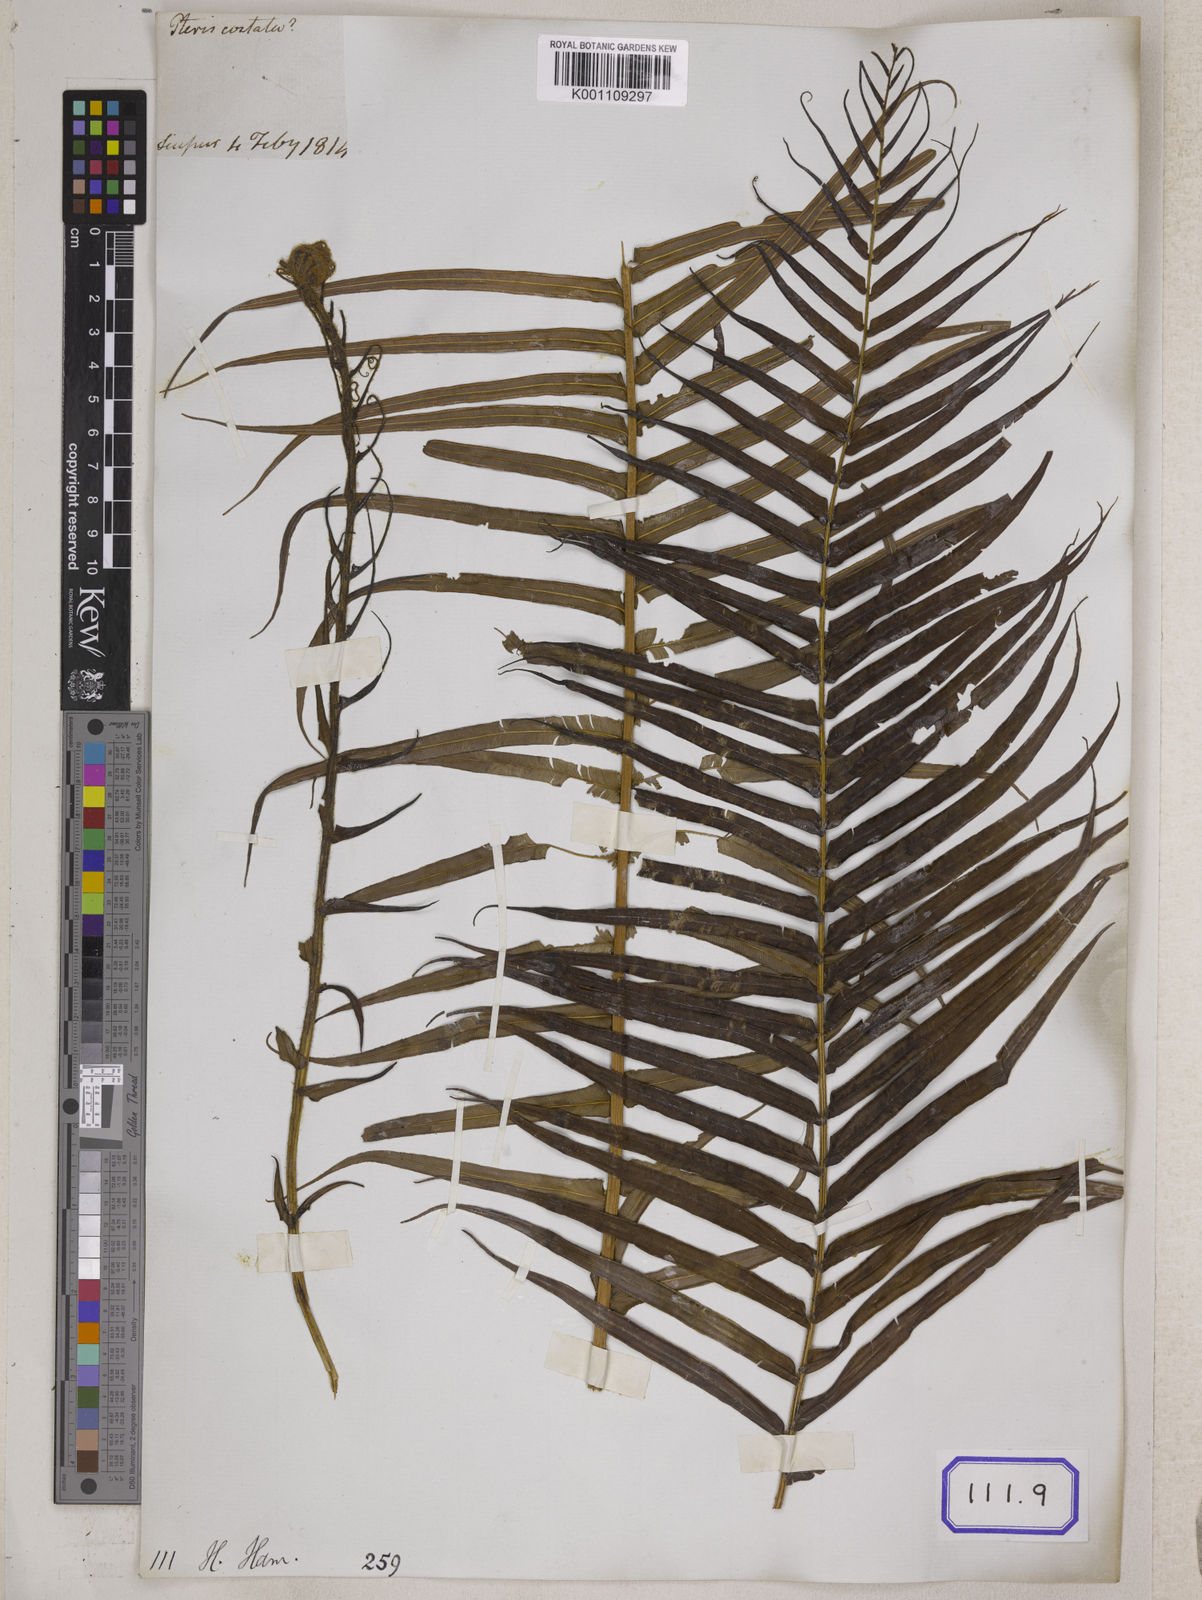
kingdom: Plantae
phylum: Tracheophyta
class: Polypodiopsida
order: Polypodiales
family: Pteridaceae
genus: Pteris
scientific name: Pteris longifolia
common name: Longleaf brake
